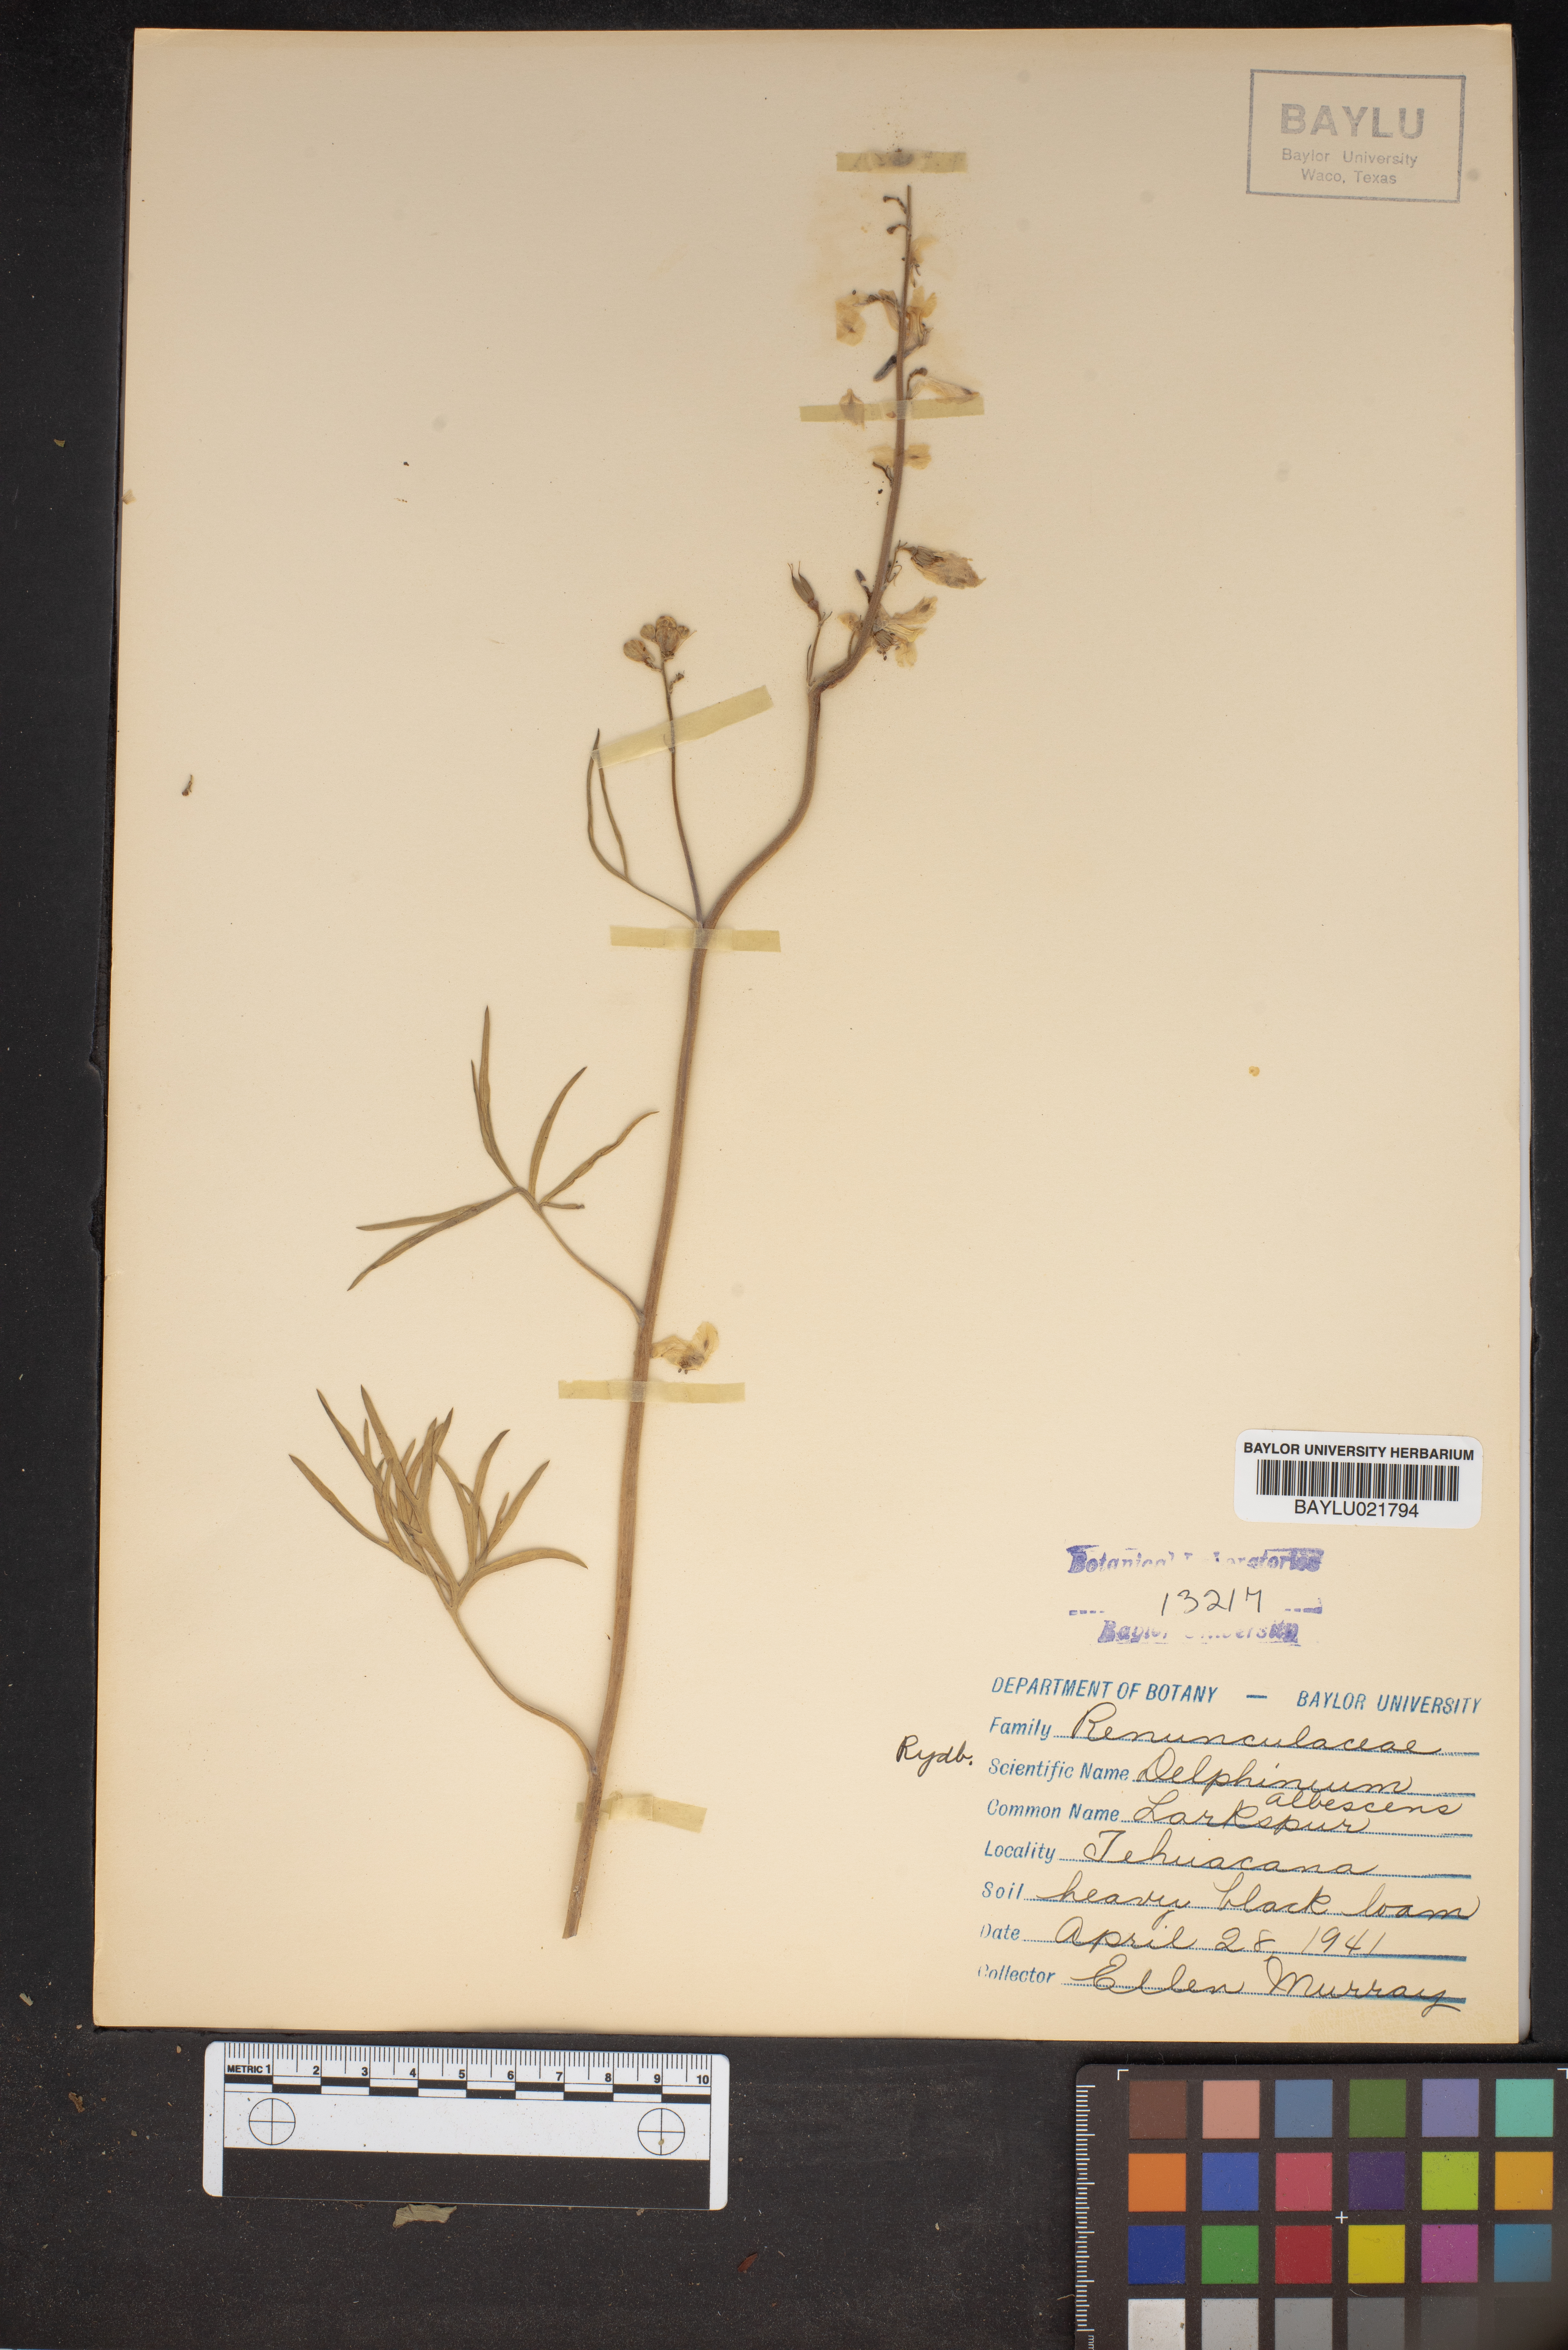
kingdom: Plantae
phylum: Tracheophyta
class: Magnoliopsida
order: Ranunculales
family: Ranunculaceae
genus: Delphinium
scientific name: Delphinium carolinianum
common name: Carolina larkspur
